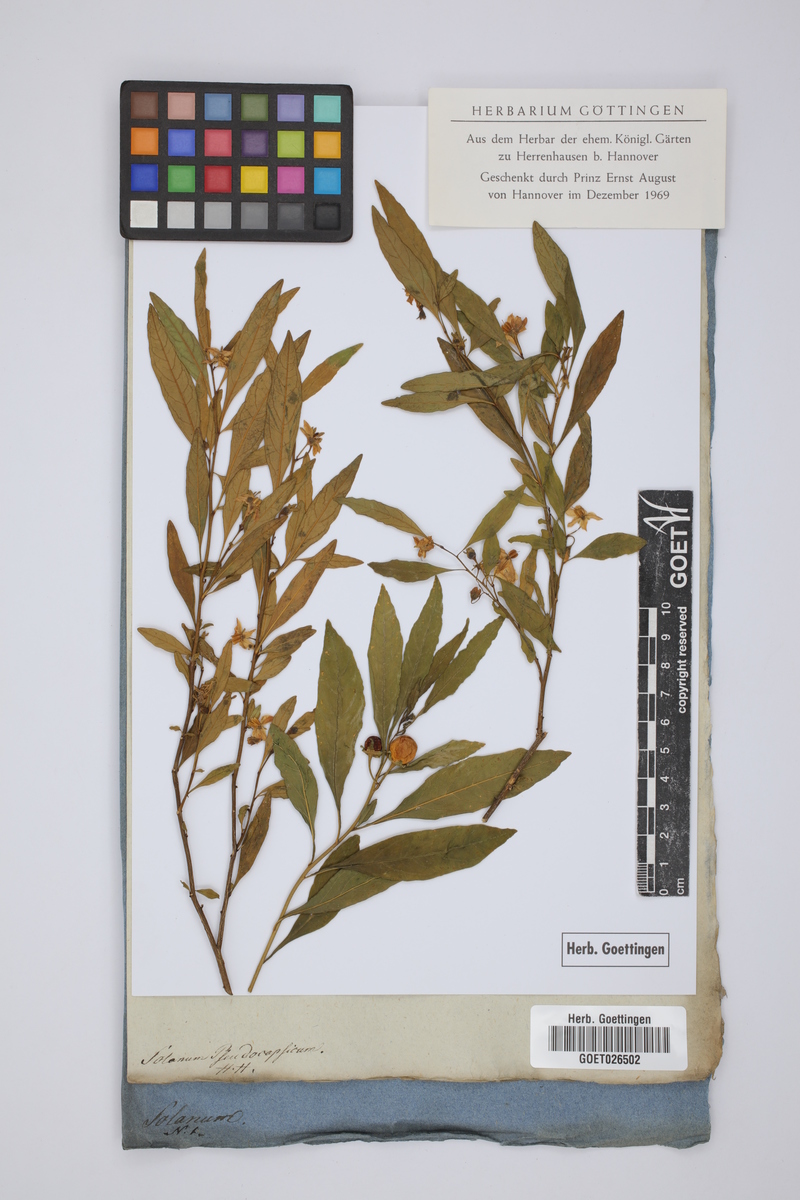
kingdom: Plantae
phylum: Tracheophyta
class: Magnoliopsida
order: Solanales
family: Solanaceae
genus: Solanum
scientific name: Solanum pseudocapsicum
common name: Jerusalem cherry
